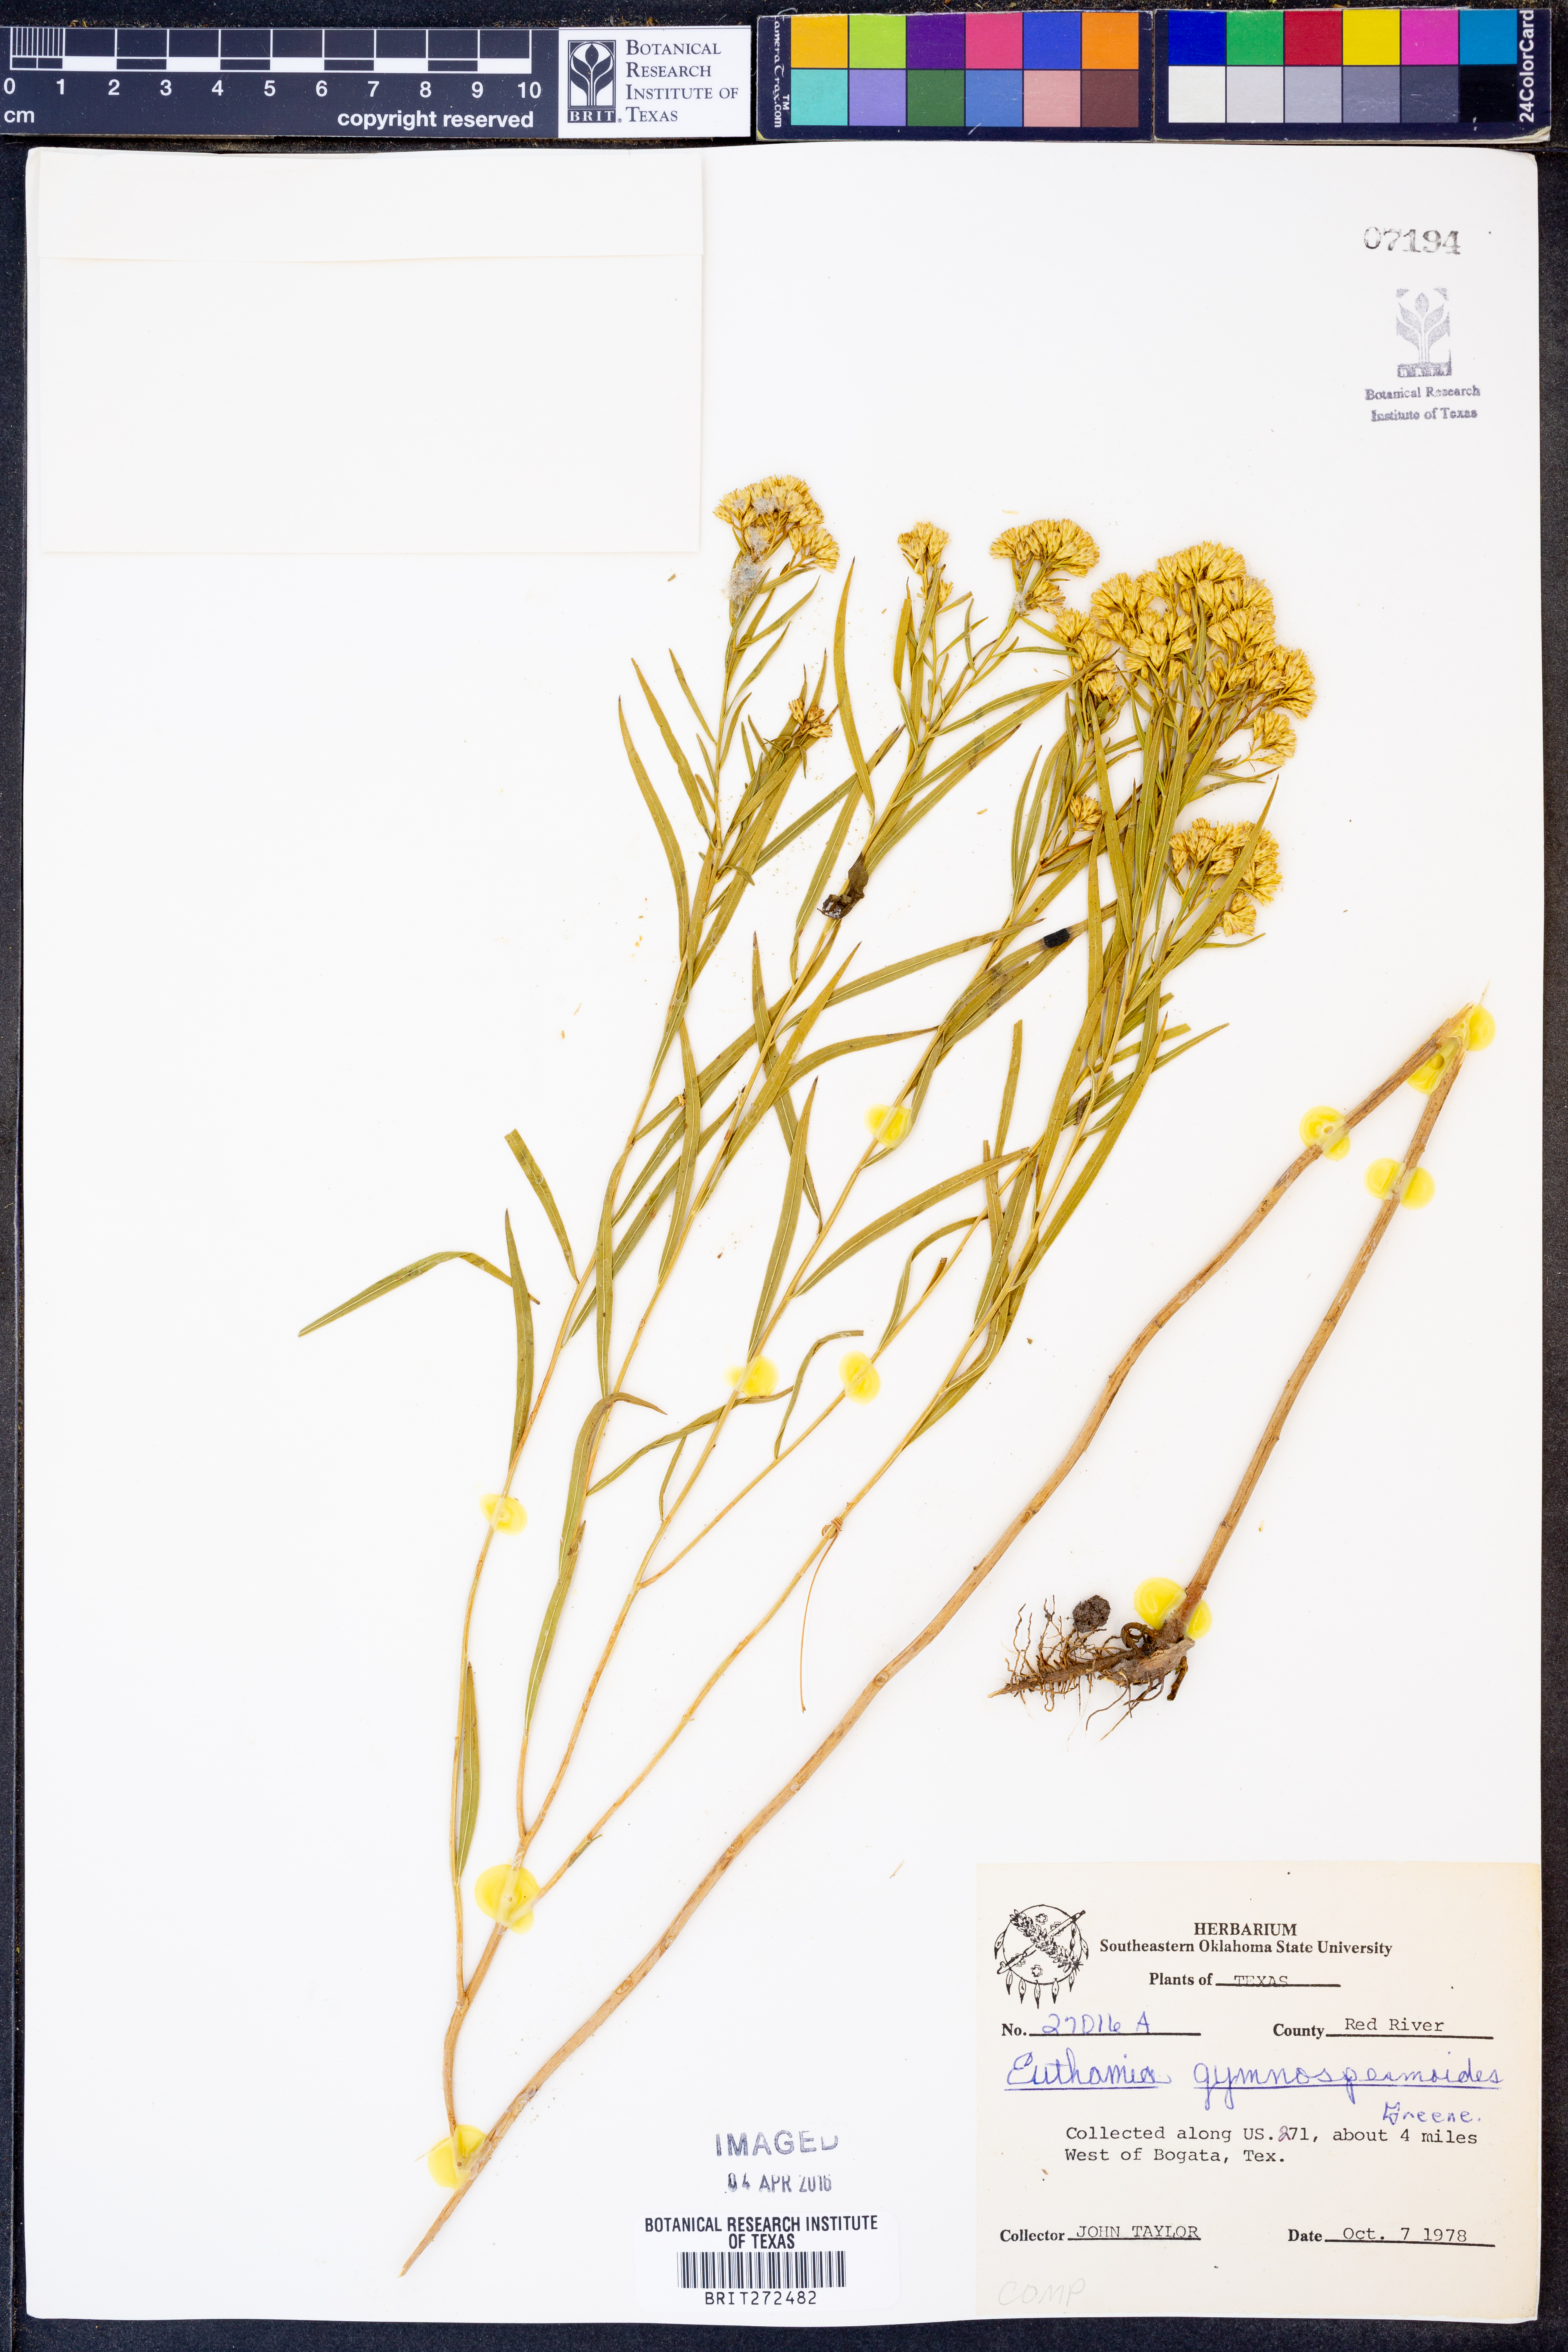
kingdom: Plantae
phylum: Tracheophyta
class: Magnoliopsida
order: Asterales
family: Asteraceae
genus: Euthamia
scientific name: Euthamia gymnospermoides
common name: Great plains goldentop
